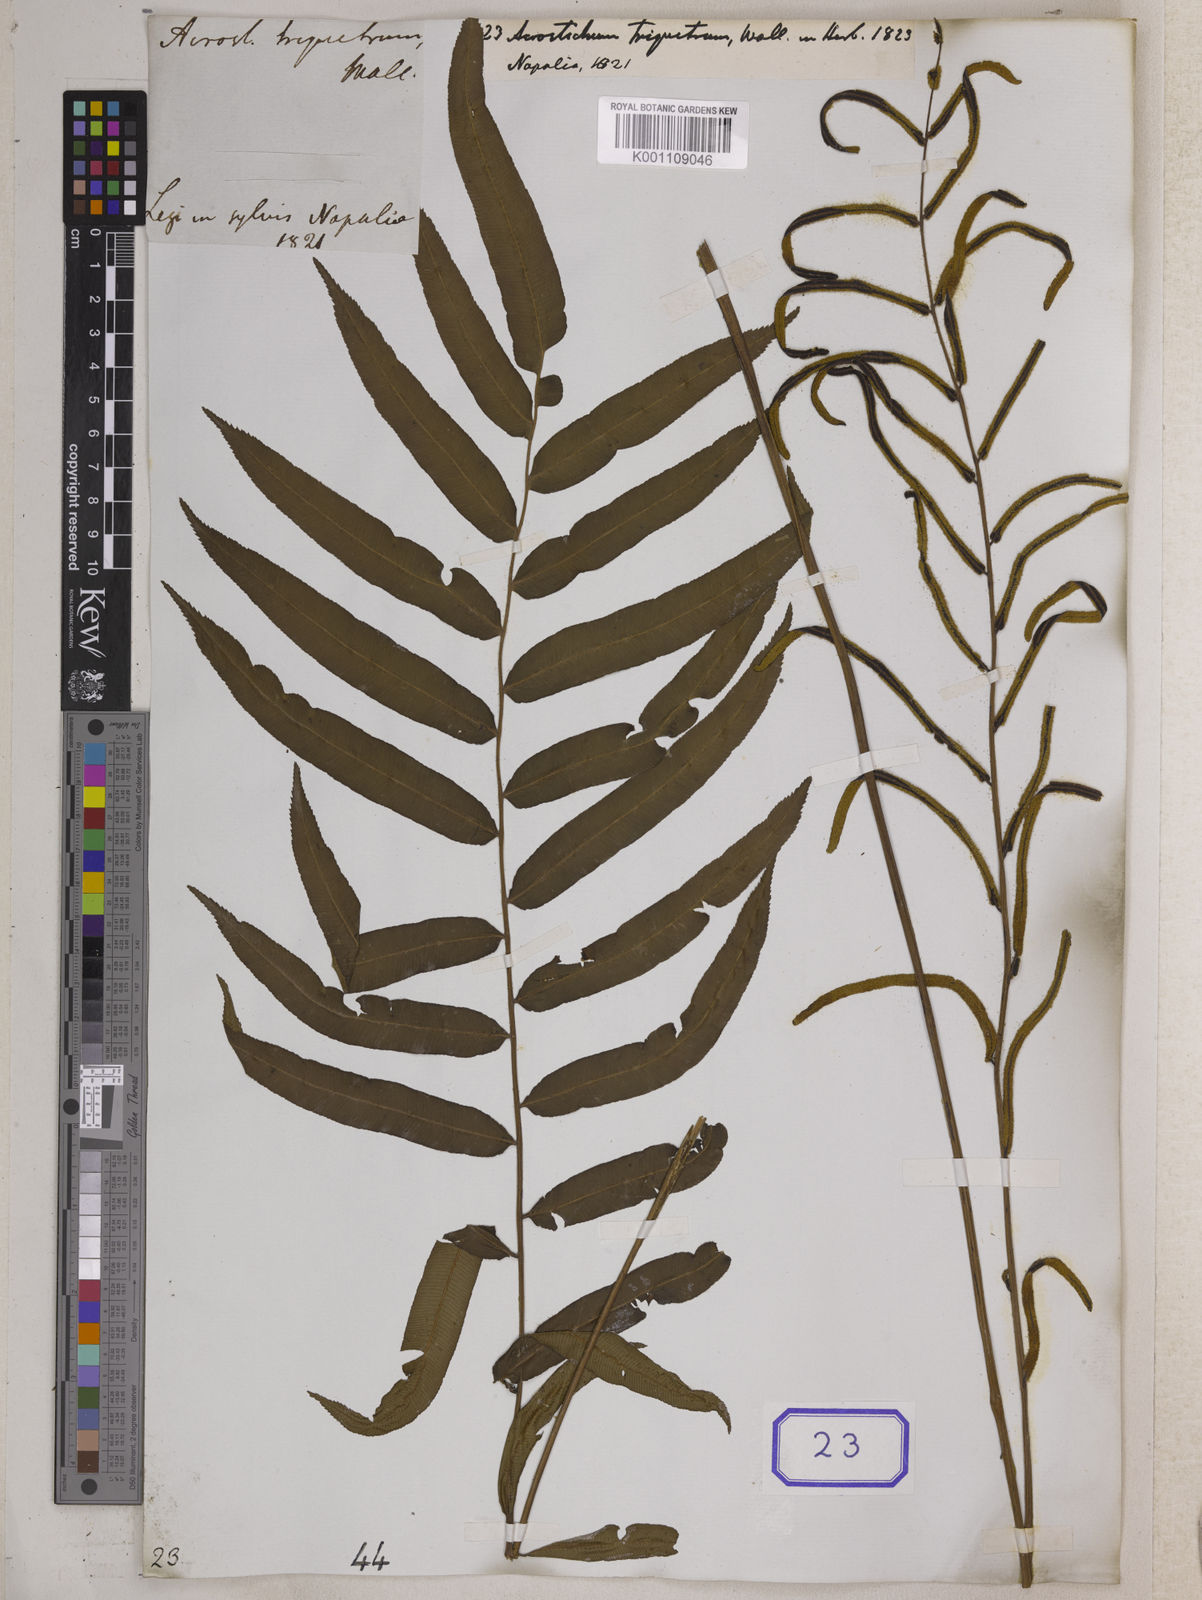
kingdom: Plantae
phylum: Tracheophyta
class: Polypodiopsida
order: Cyatheales
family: Plagiogyriaceae
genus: Plagiogyria
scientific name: Plagiogyria euphlebia
